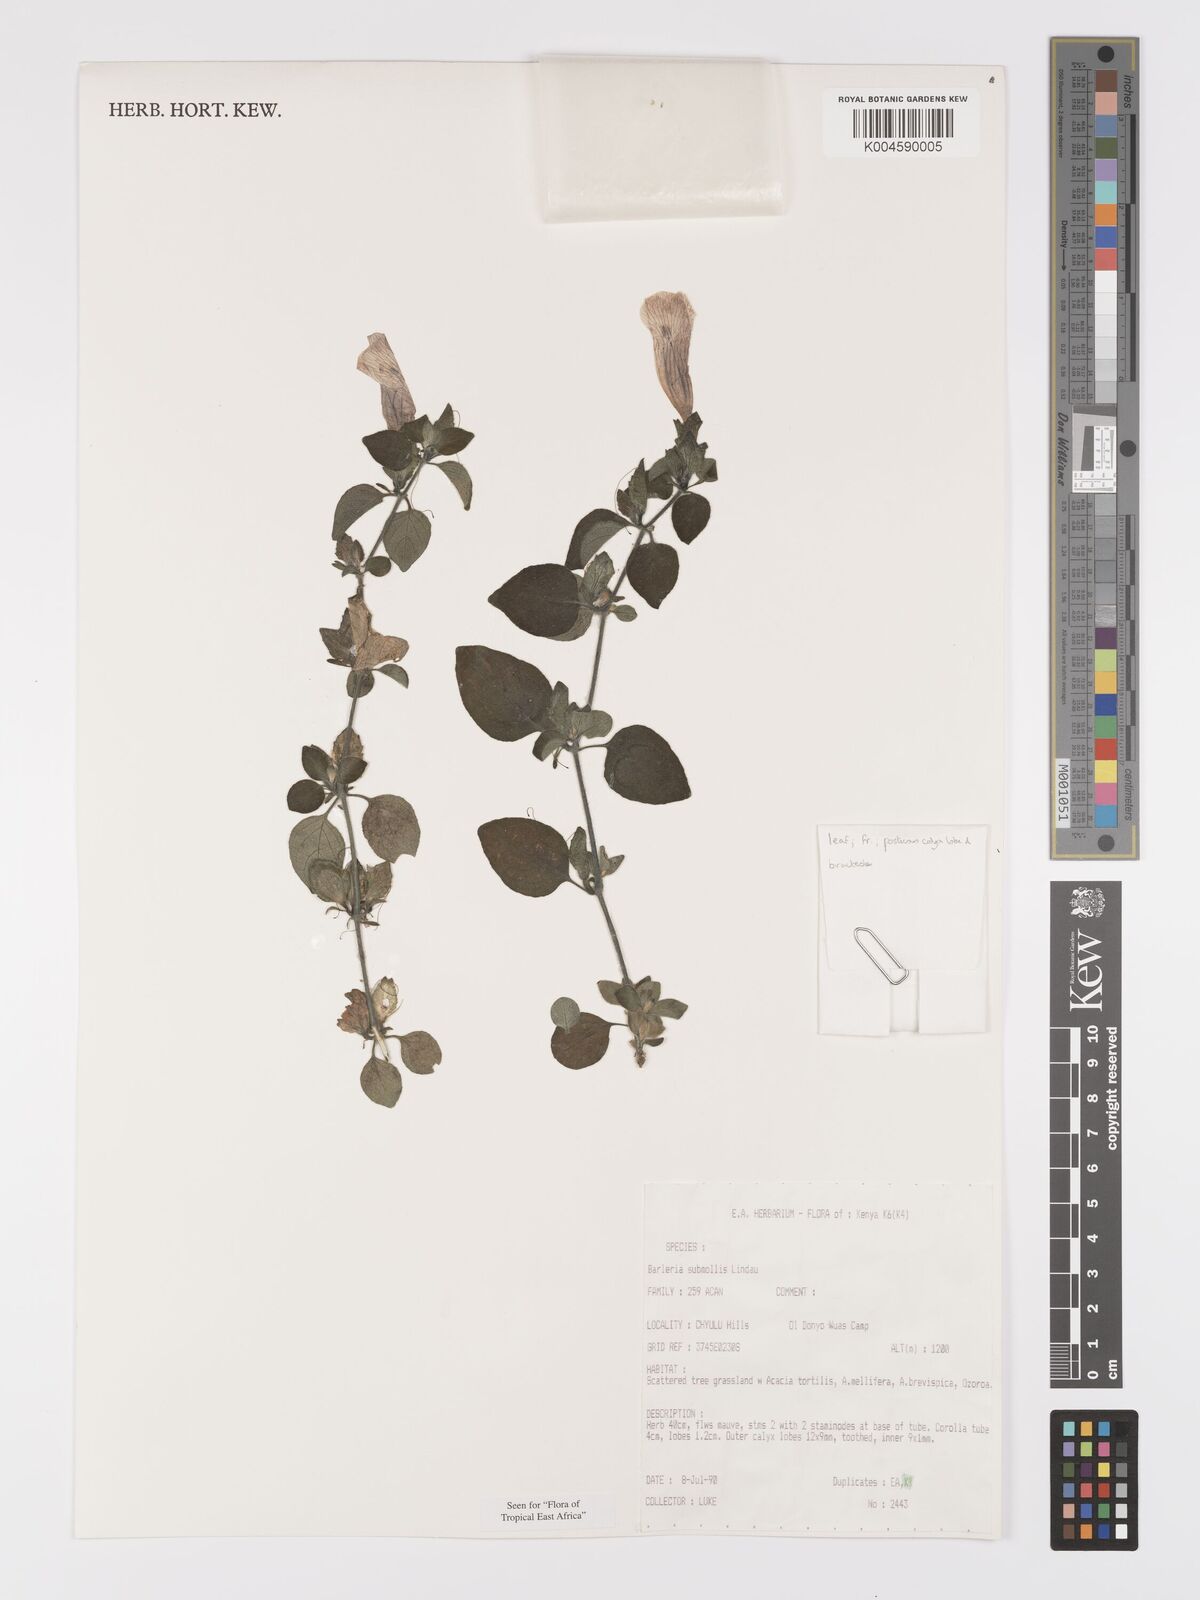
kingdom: Plantae
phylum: Tracheophyta
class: Magnoliopsida
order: Lamiales
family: Acanthaceae
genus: Barleria
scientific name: Barleria submollis
